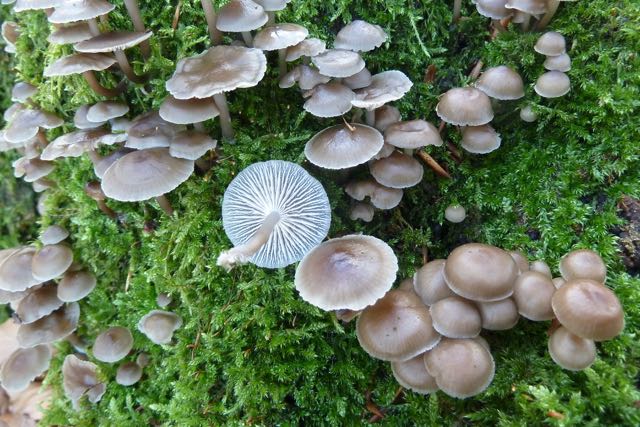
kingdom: Fungi
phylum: Basidiomycota
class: Agaricomycetes
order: Agaricales
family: Mycenaceae
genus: Mycena
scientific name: Mycena tintinnabulum
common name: vinter-huesvamp
